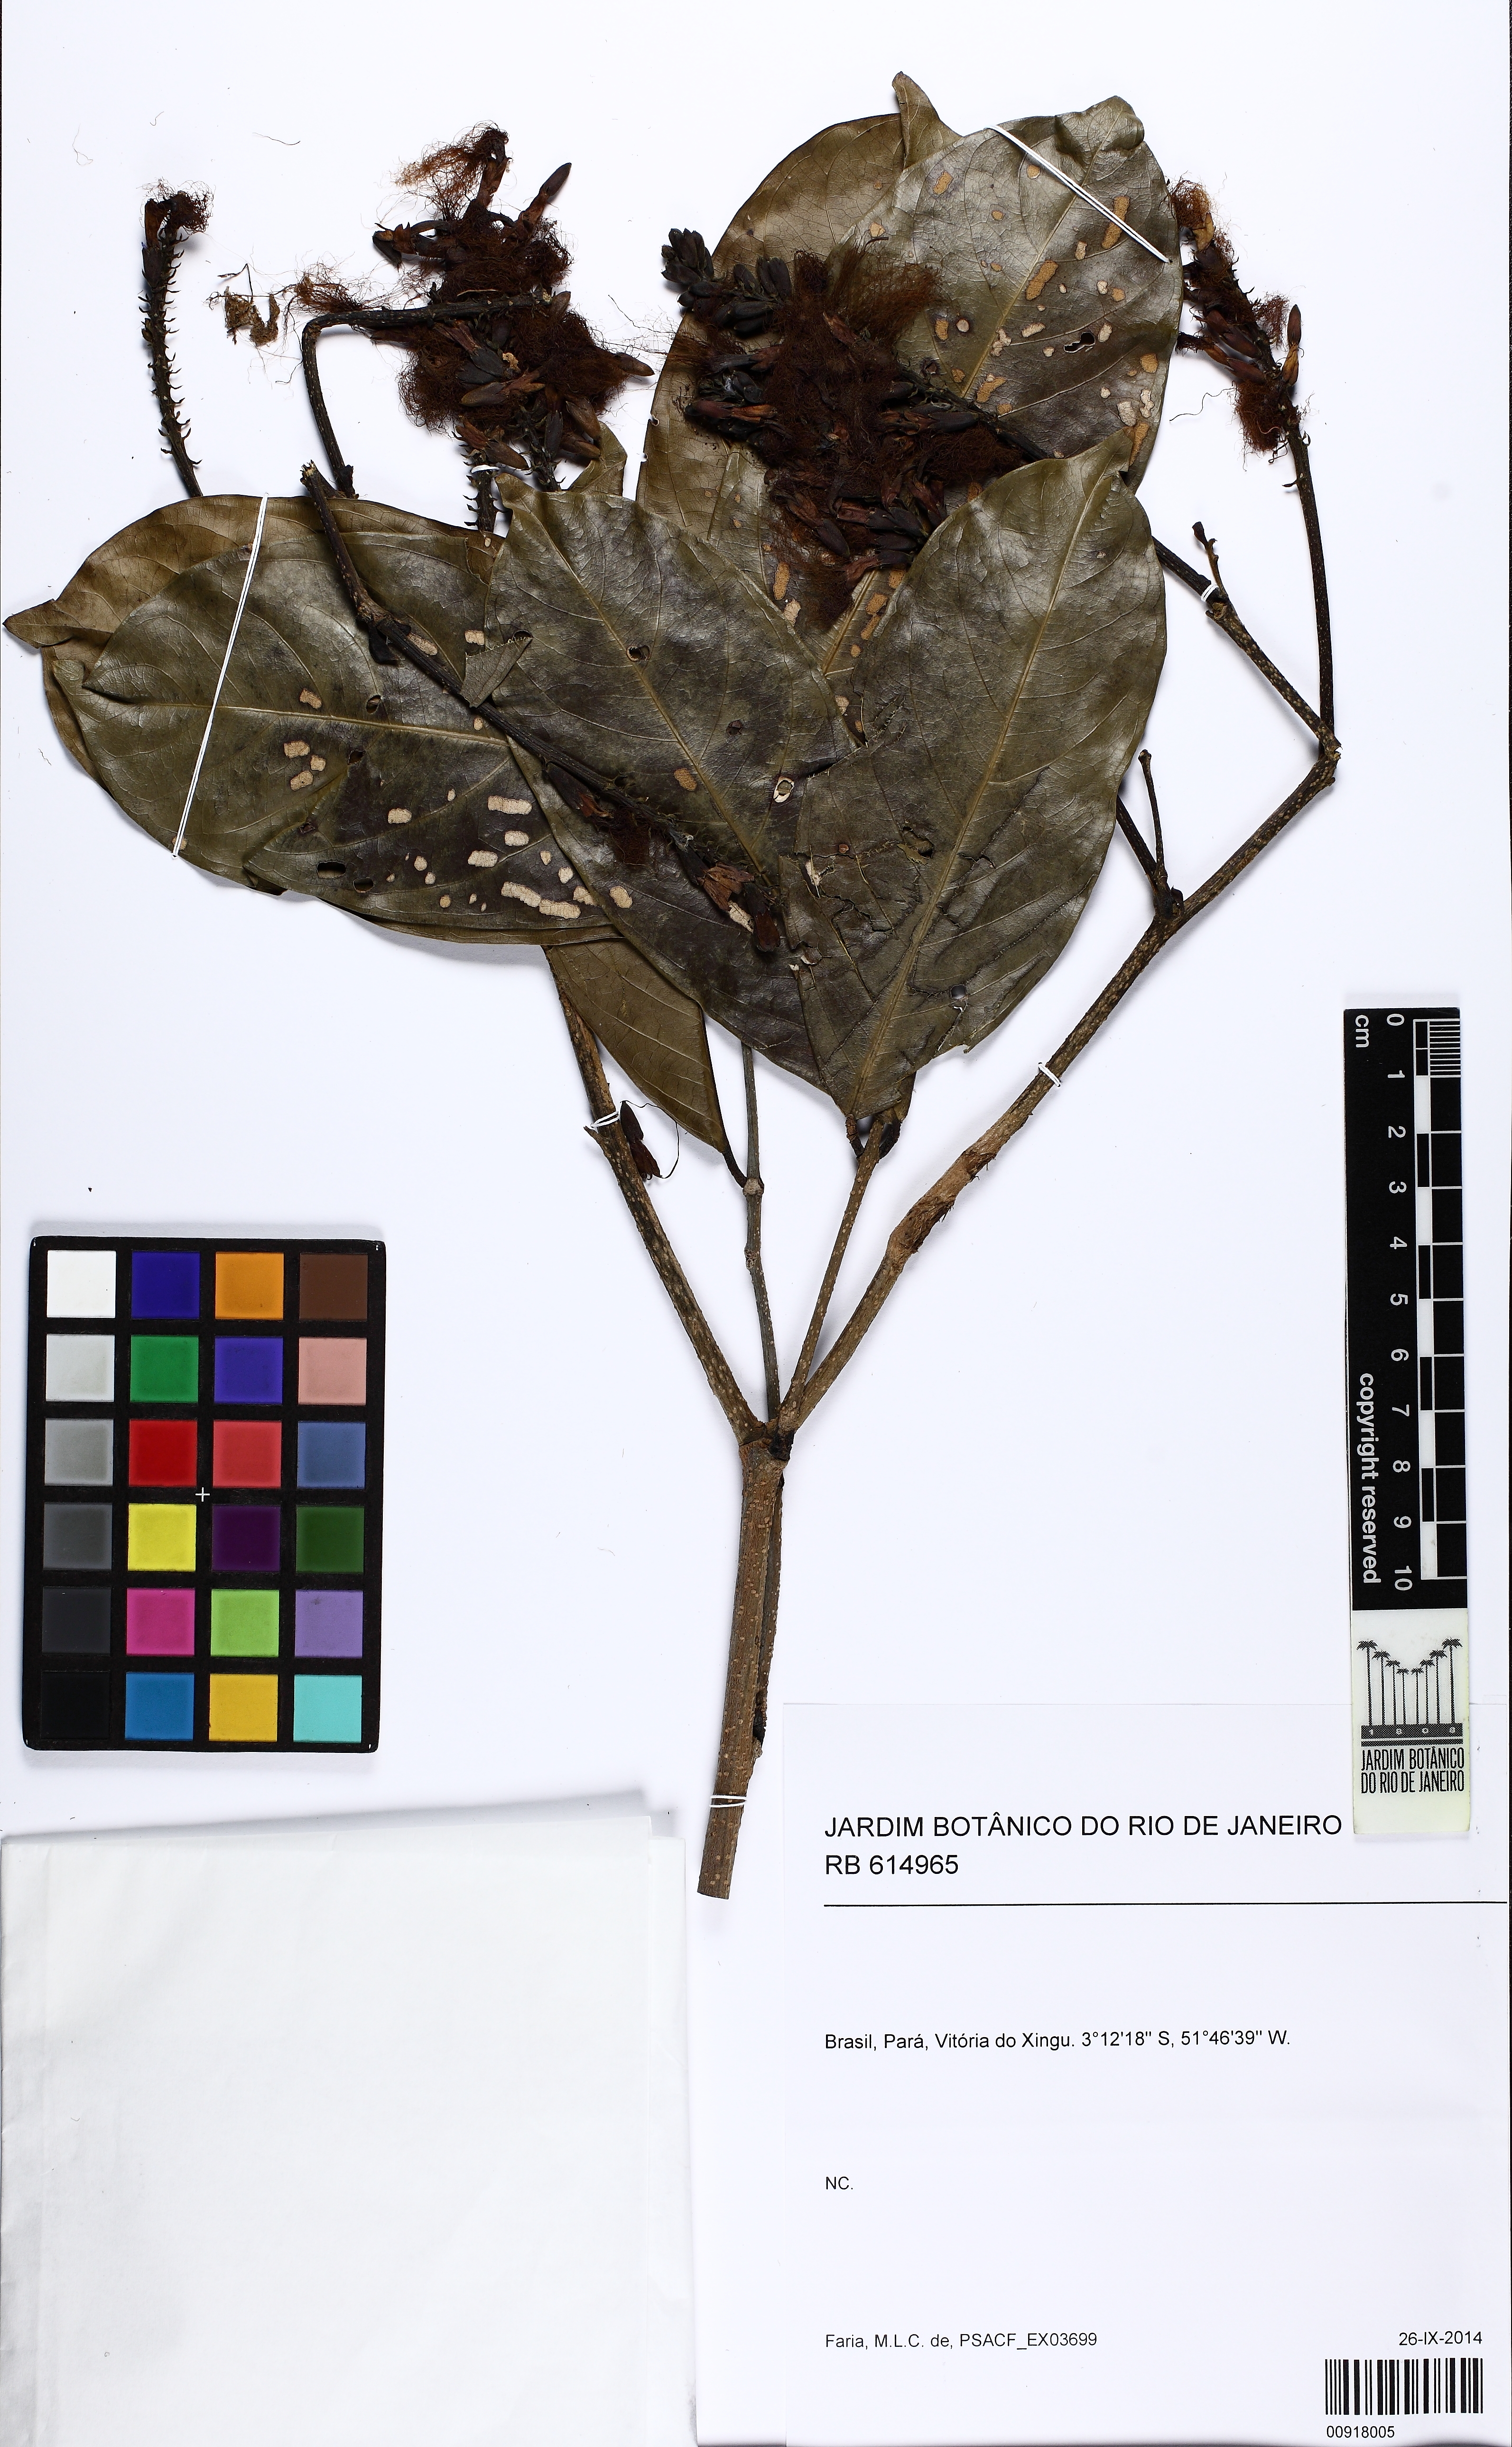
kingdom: Plantae
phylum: Tracheophyta
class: Magnoliopsida
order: Fabales
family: Fabaceae
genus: Inga
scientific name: Inga
